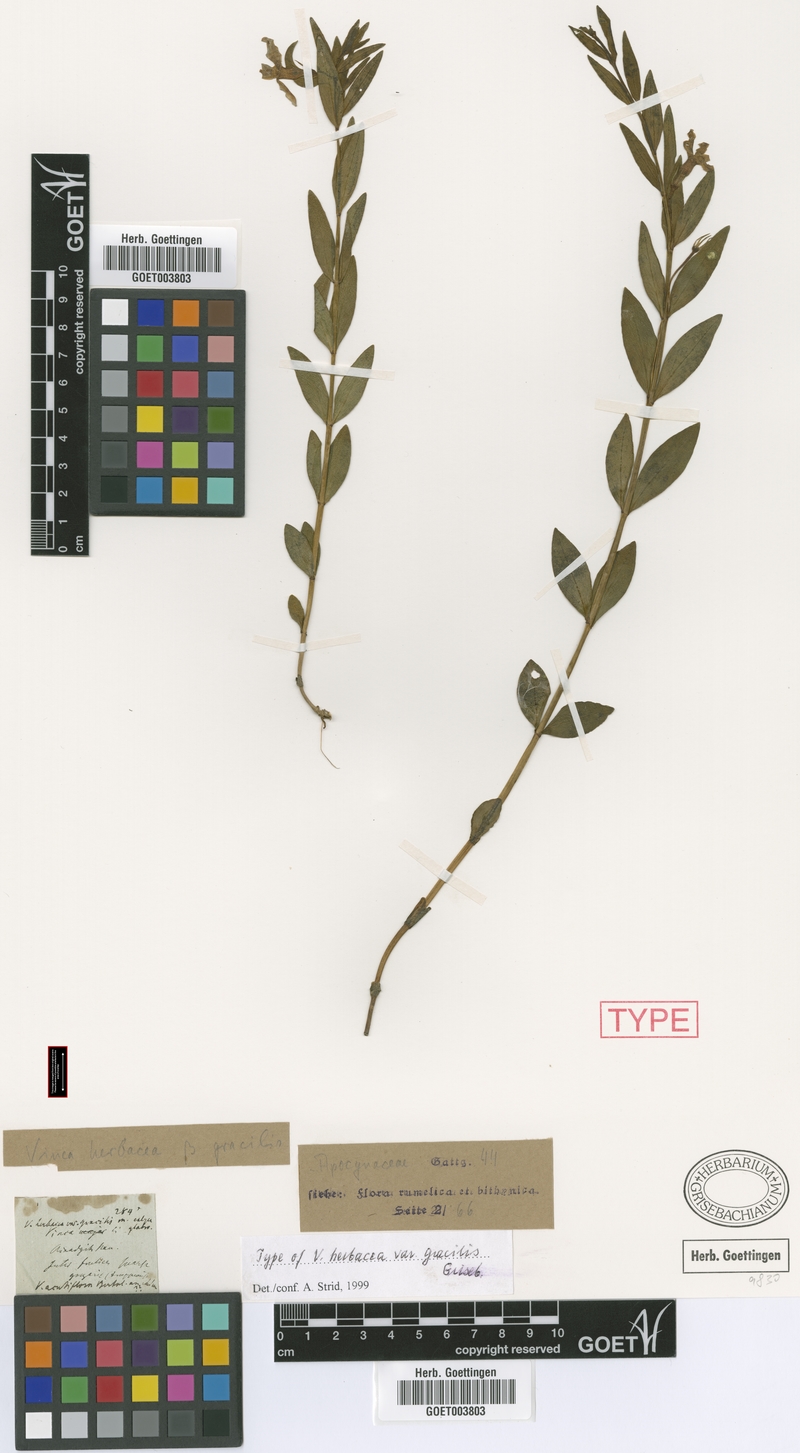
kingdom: Plantae
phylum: Tracheophyta
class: Magnoliopsida
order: Gentianales
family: Apocynaceae
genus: Vinca
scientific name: Vinca herbacea
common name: Herbaceous periwinkle
